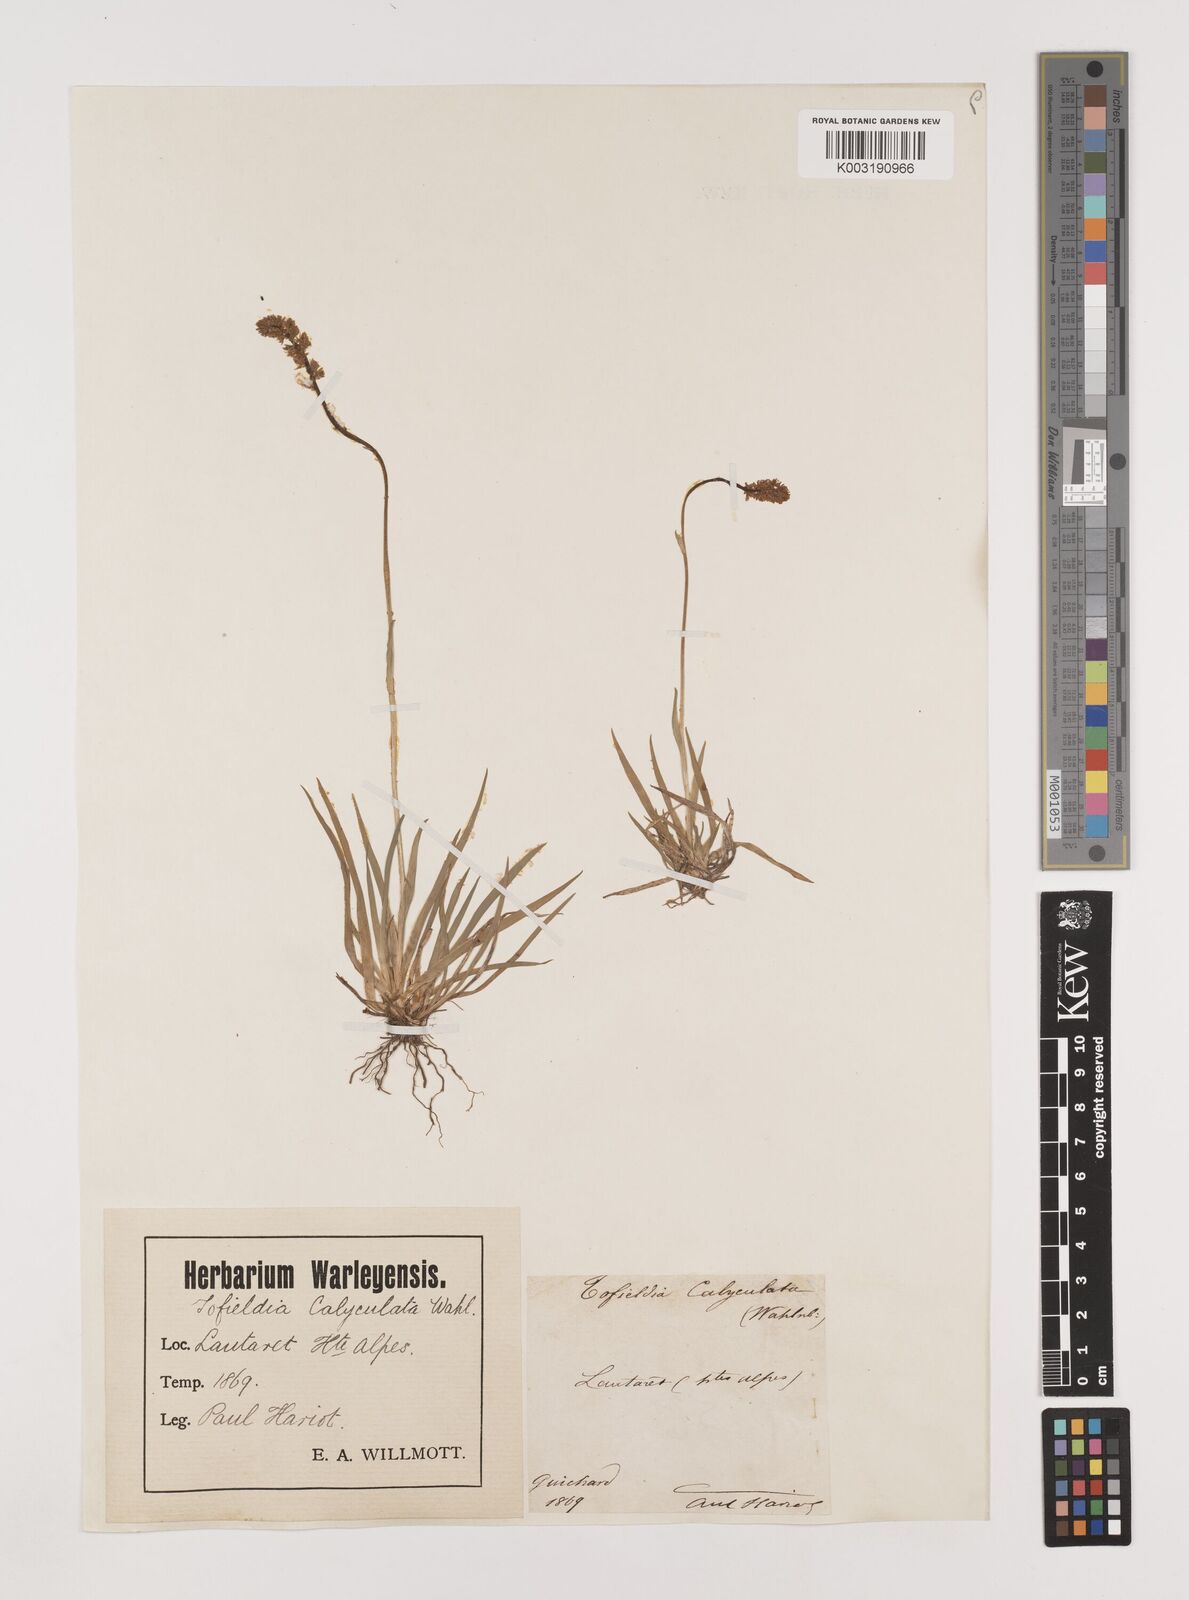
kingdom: Plantae
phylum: Tracheophyta
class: Liliopsida
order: Alismatales
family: Tofieldiaceae
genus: Tofieldia
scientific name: Tofieldia calyculata
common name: German-asphodel
